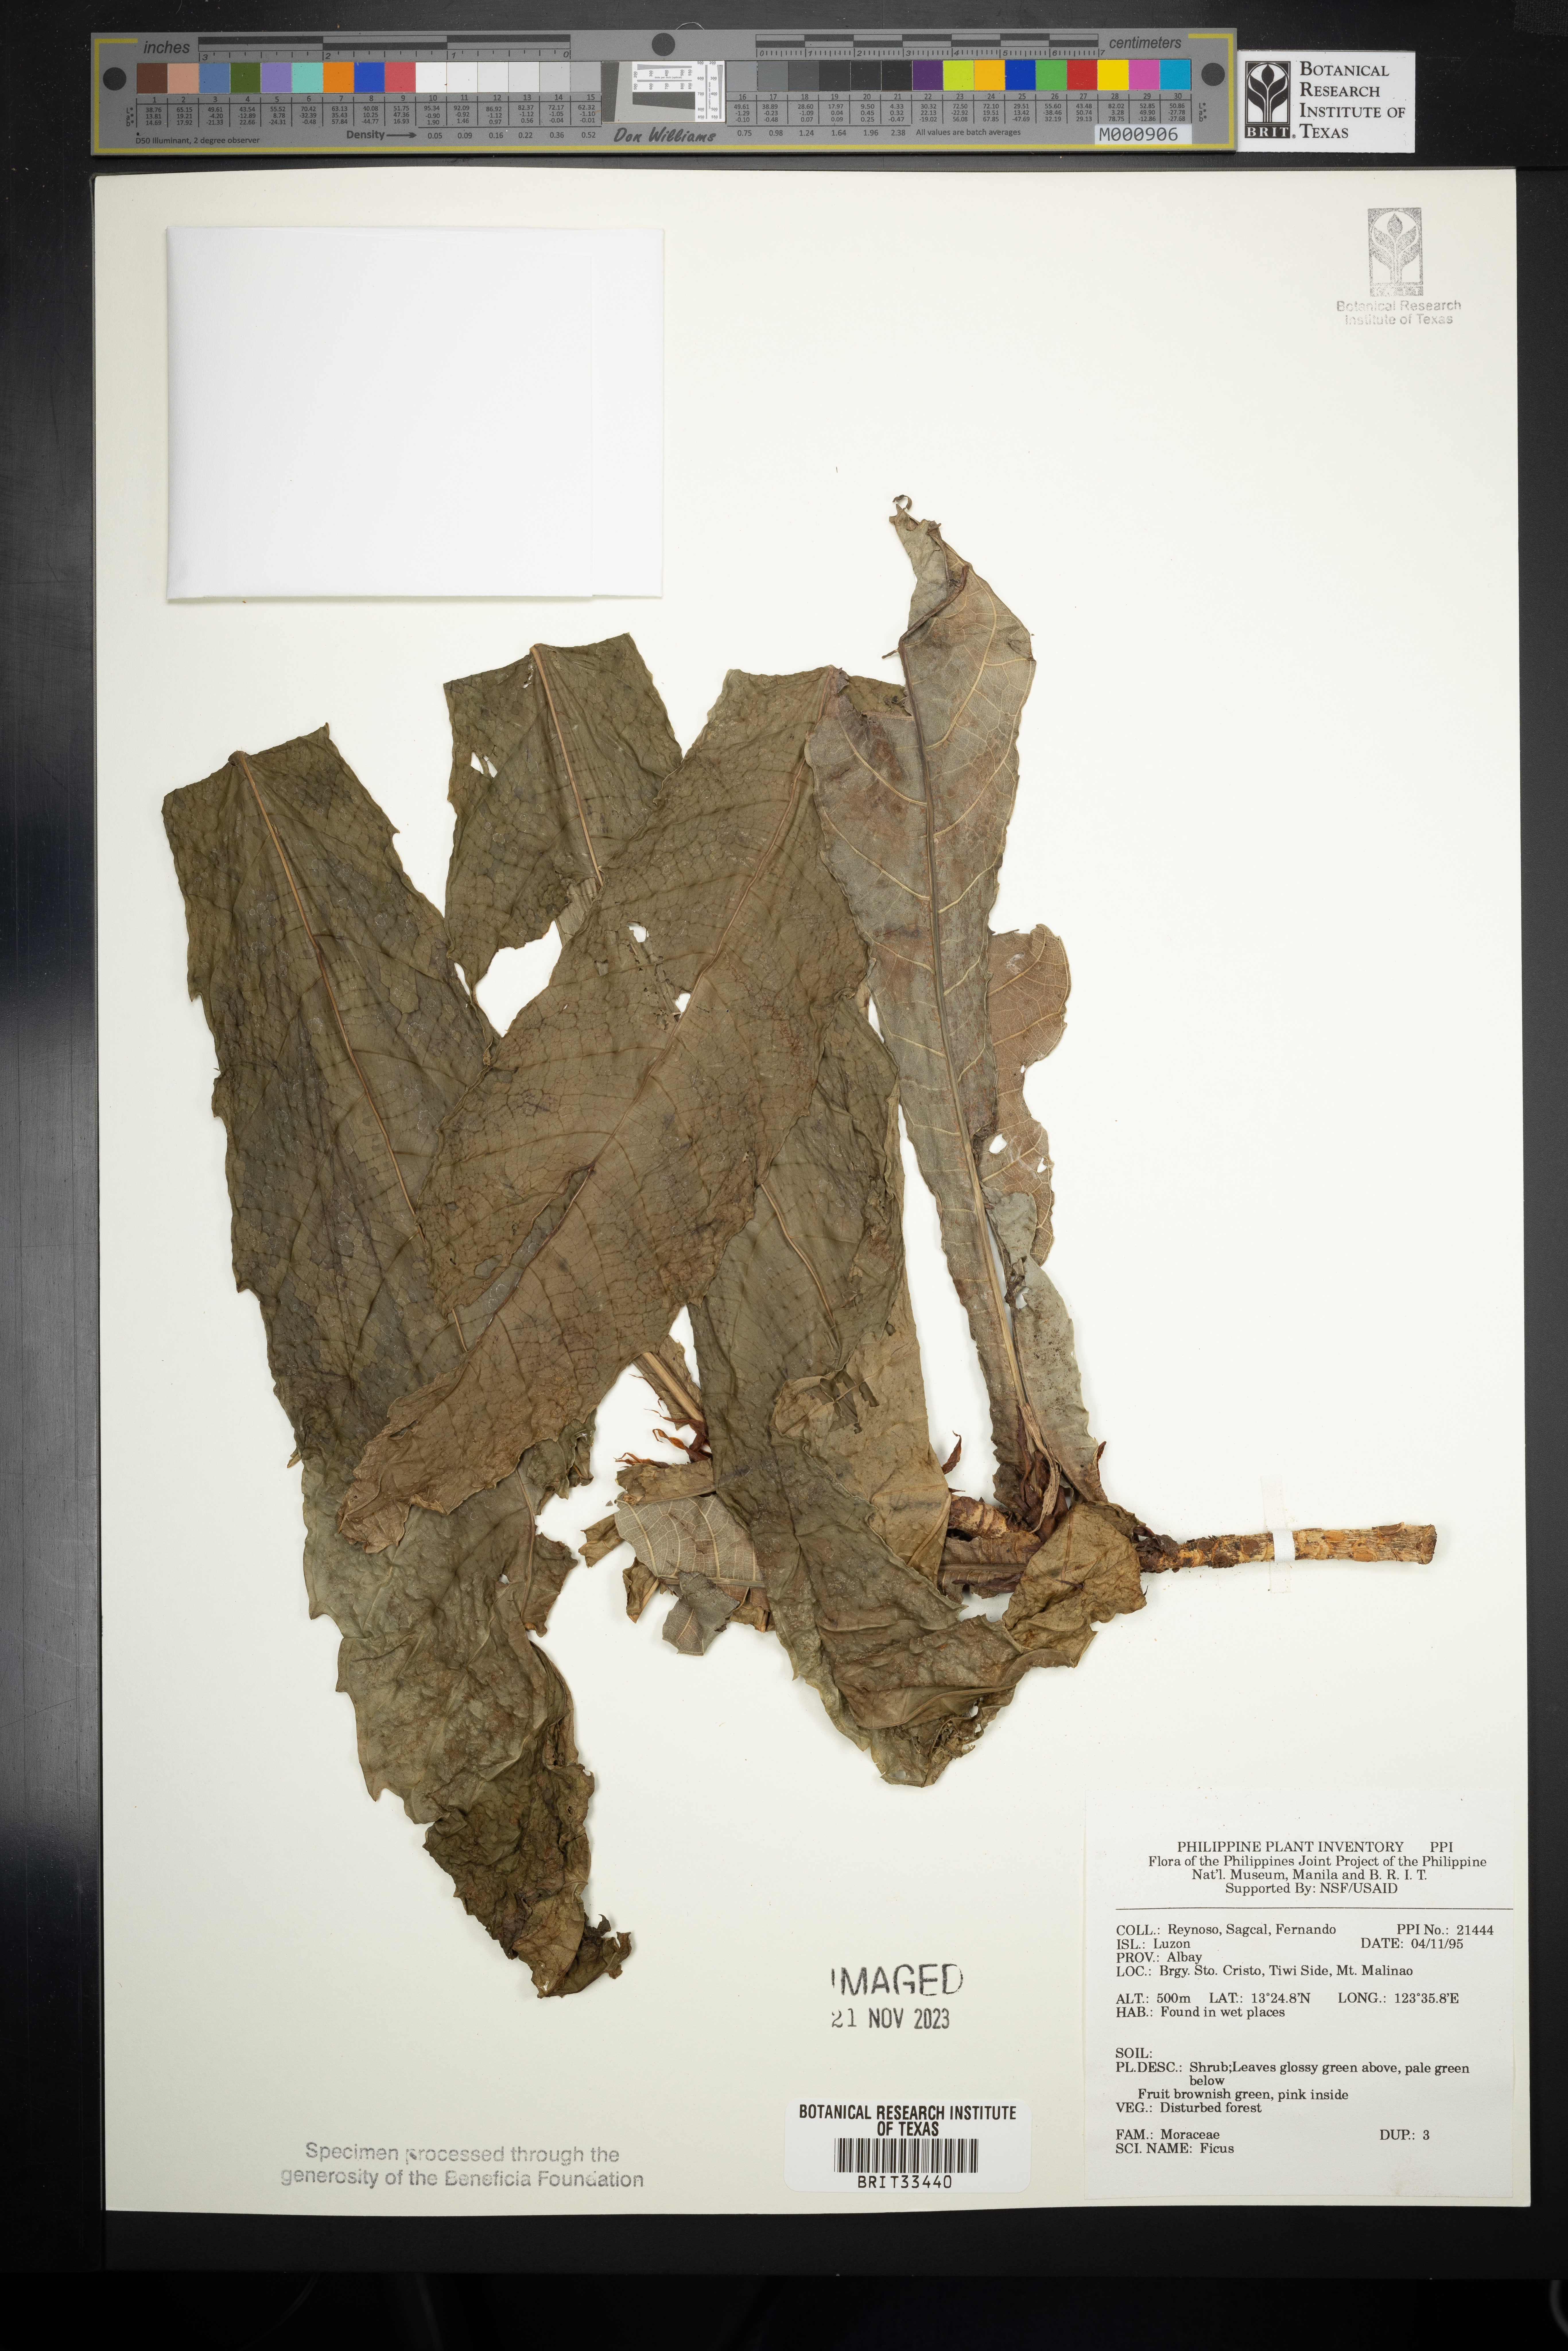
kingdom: Plantae
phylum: Tracheophyta
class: Magnoliopsida
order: Rosales
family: Moraceae
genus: Ficus
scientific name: Ficus
